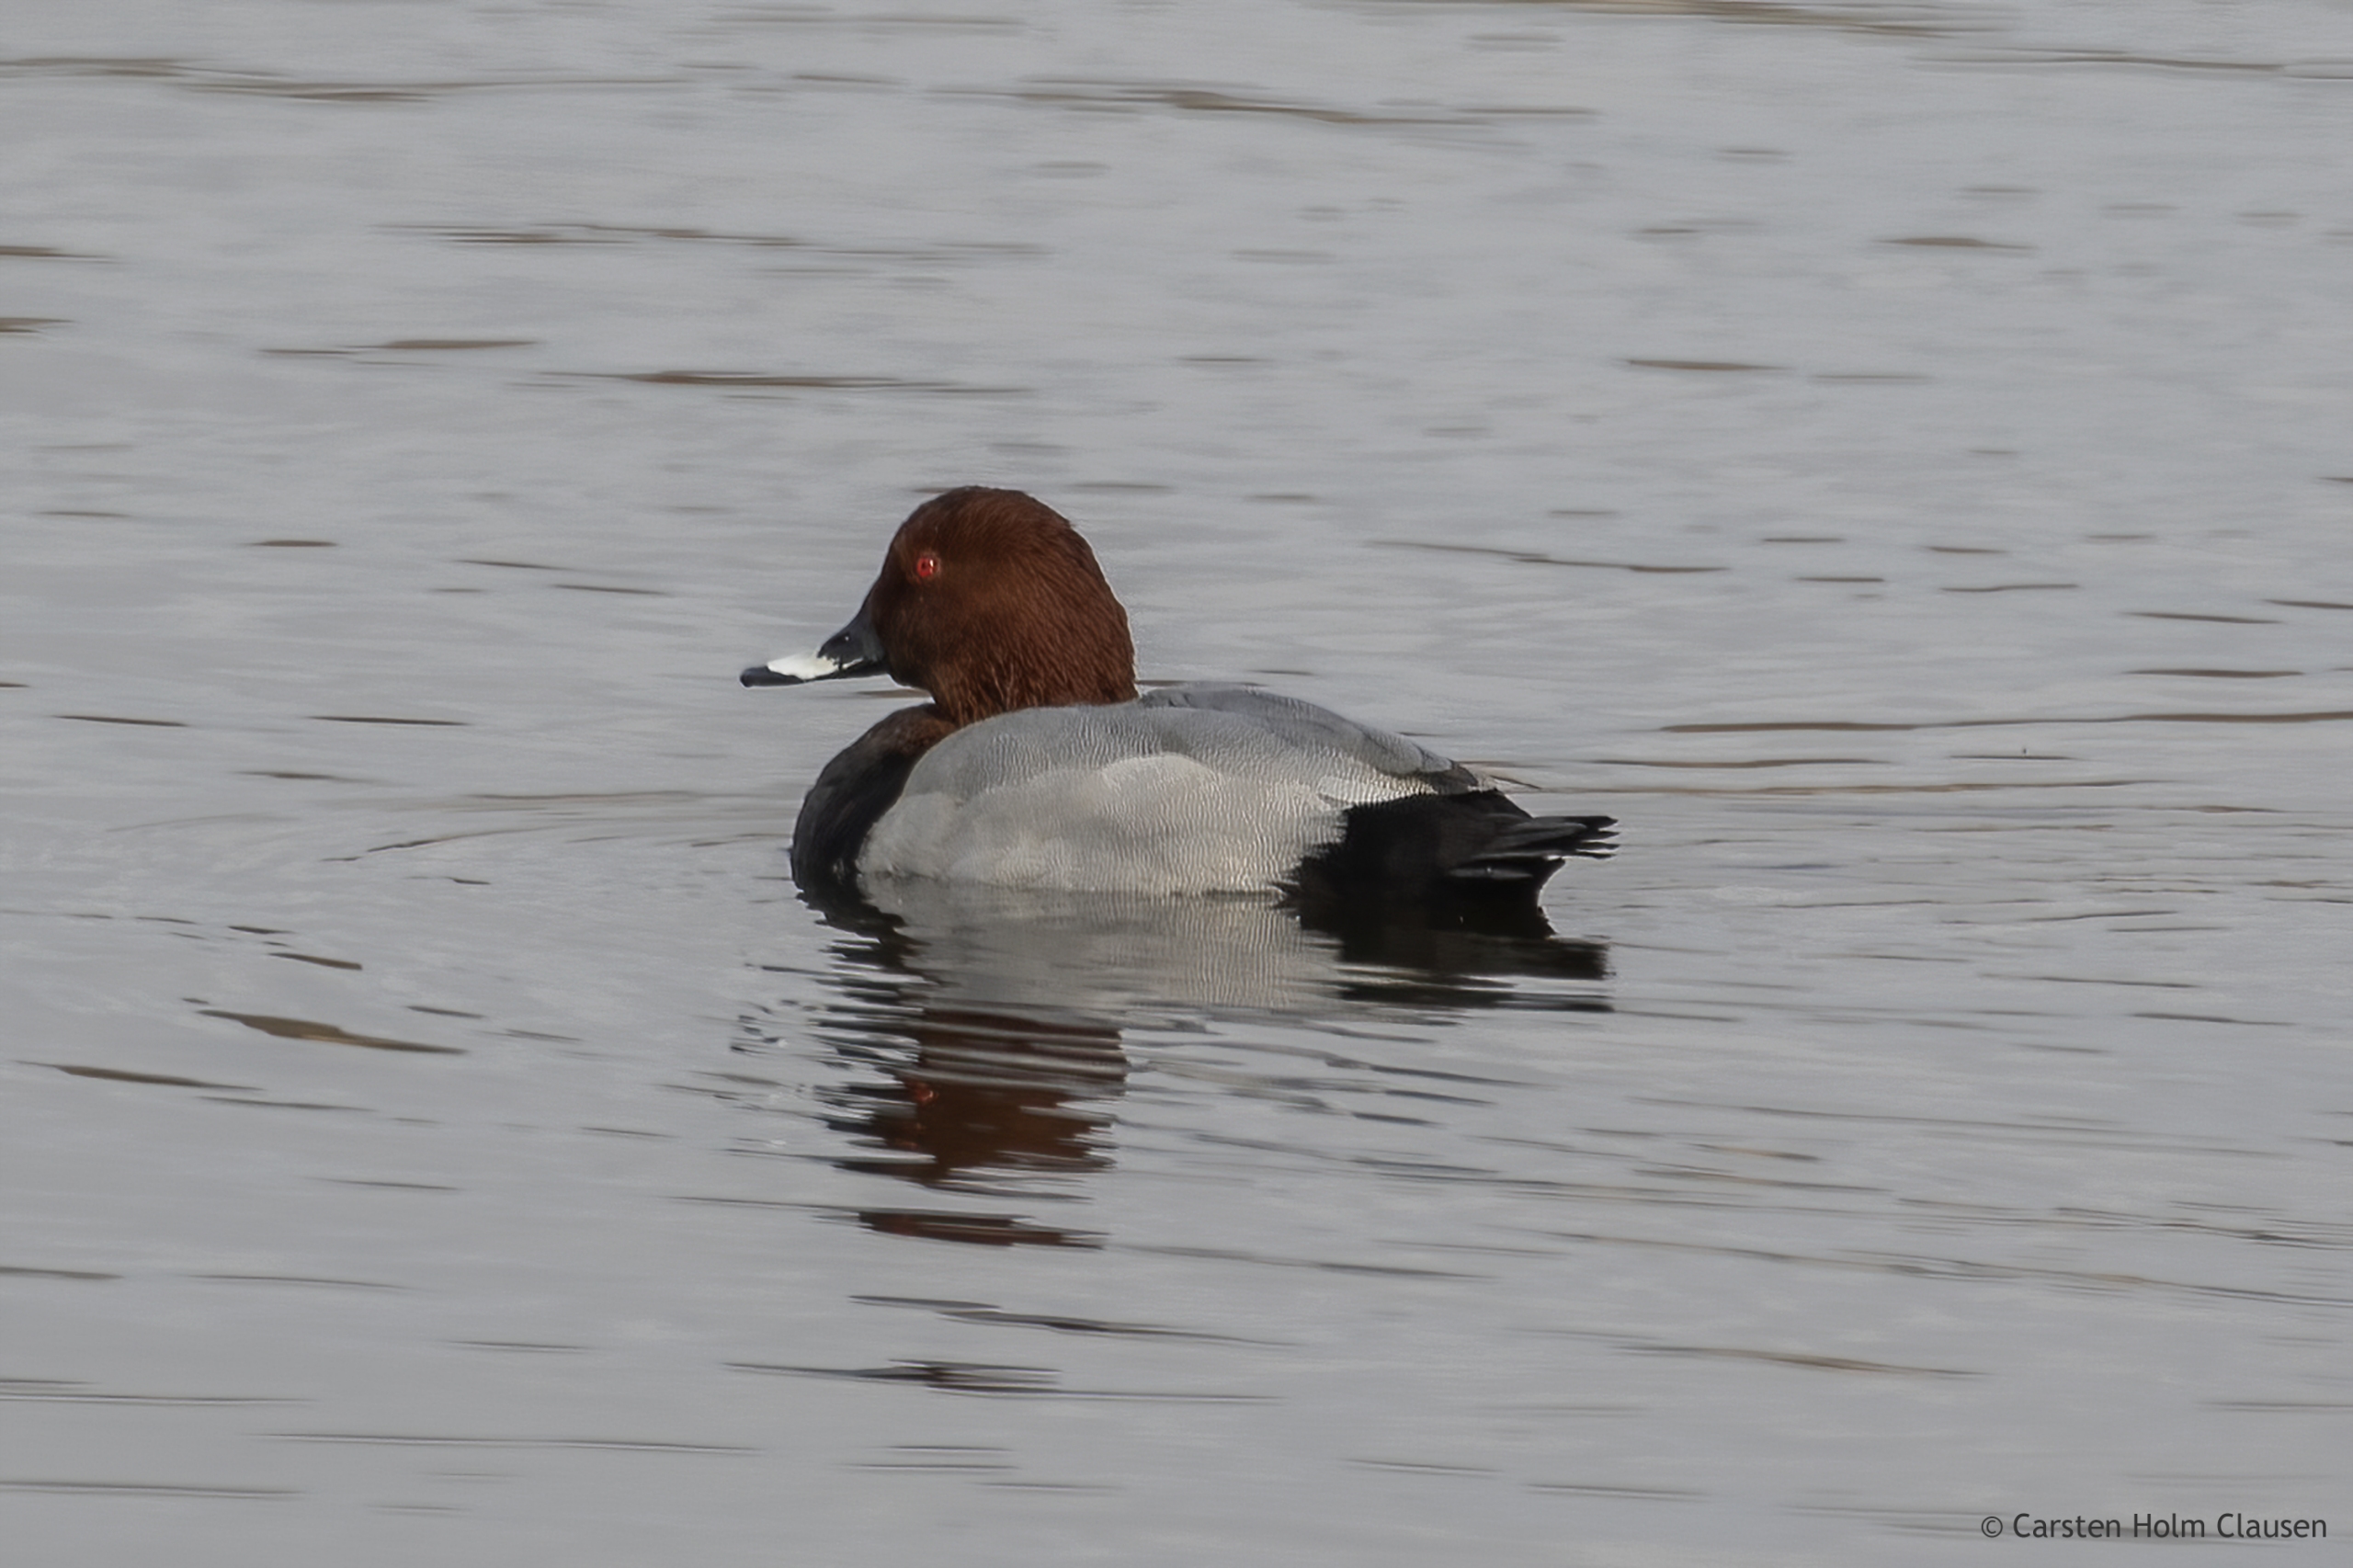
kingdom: Animalia
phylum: Chordata
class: Aves
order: Anseriformes
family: Anatidae
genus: Aythya
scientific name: Aythya ferina
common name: Taffeland
